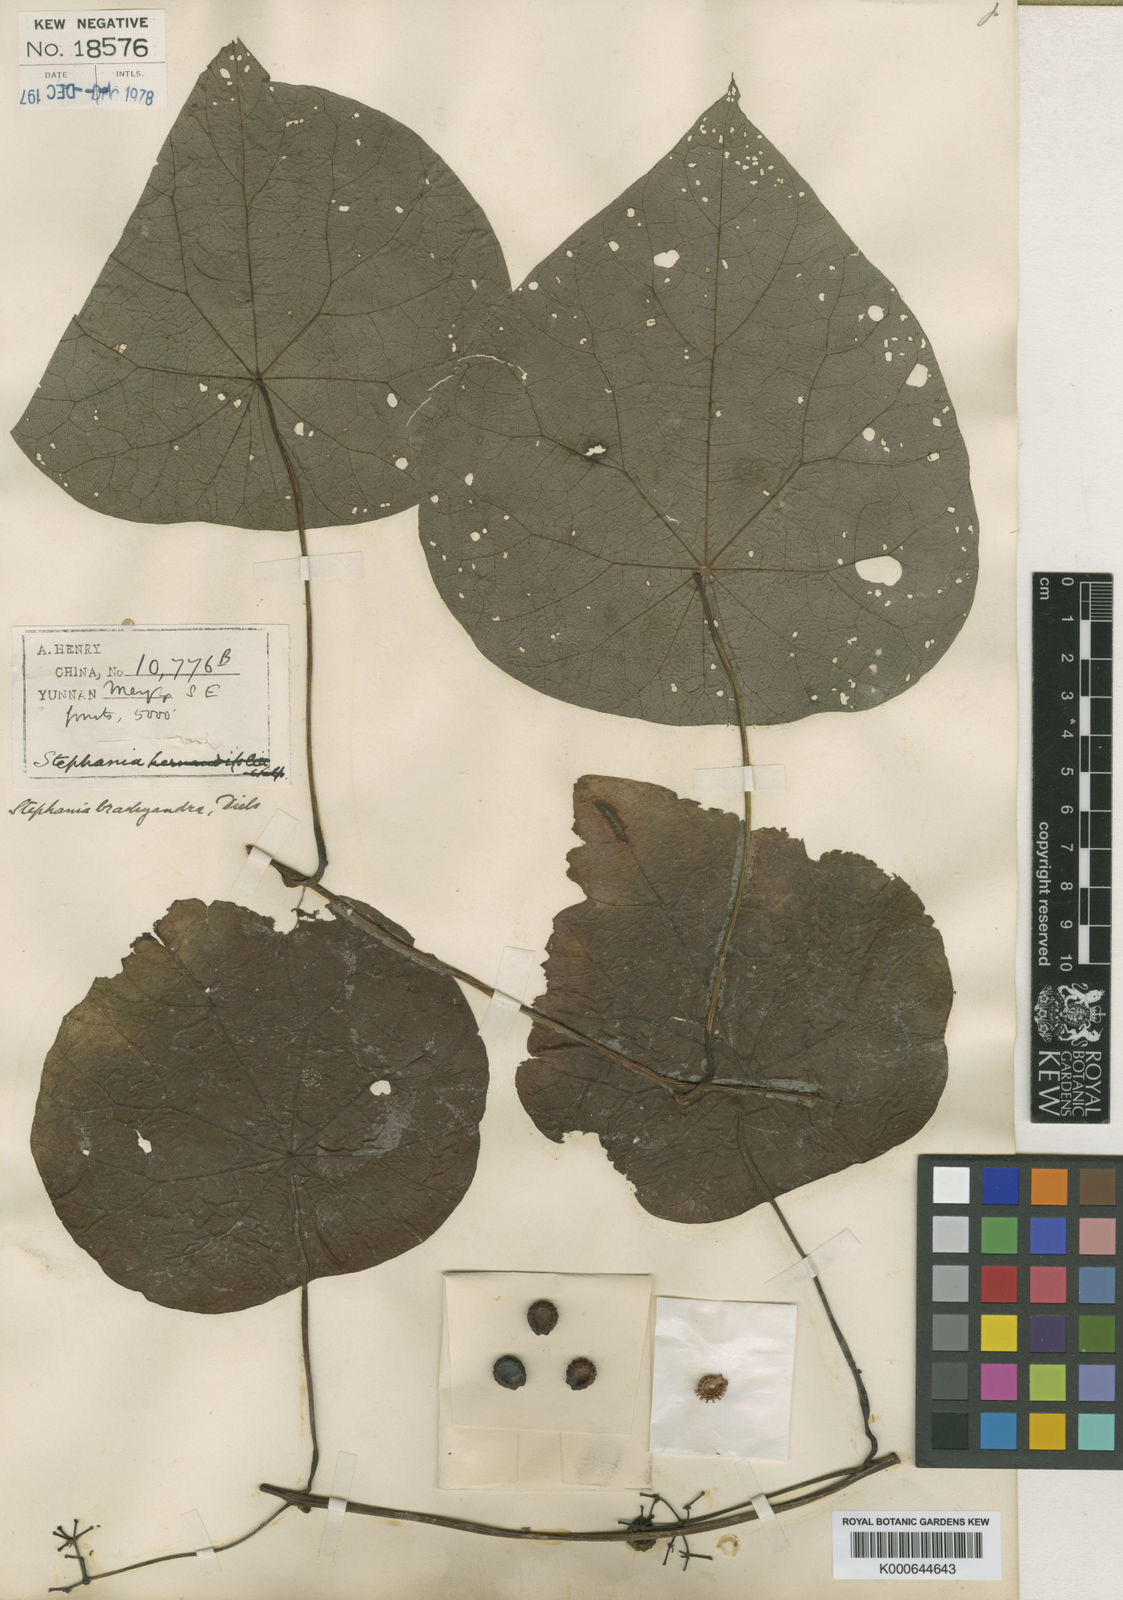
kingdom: Plantae
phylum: Tracheophyta
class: Magnoliopsida
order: Ranunculales
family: Menispermaceae
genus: Stephania
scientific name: Stephania brachyandra
